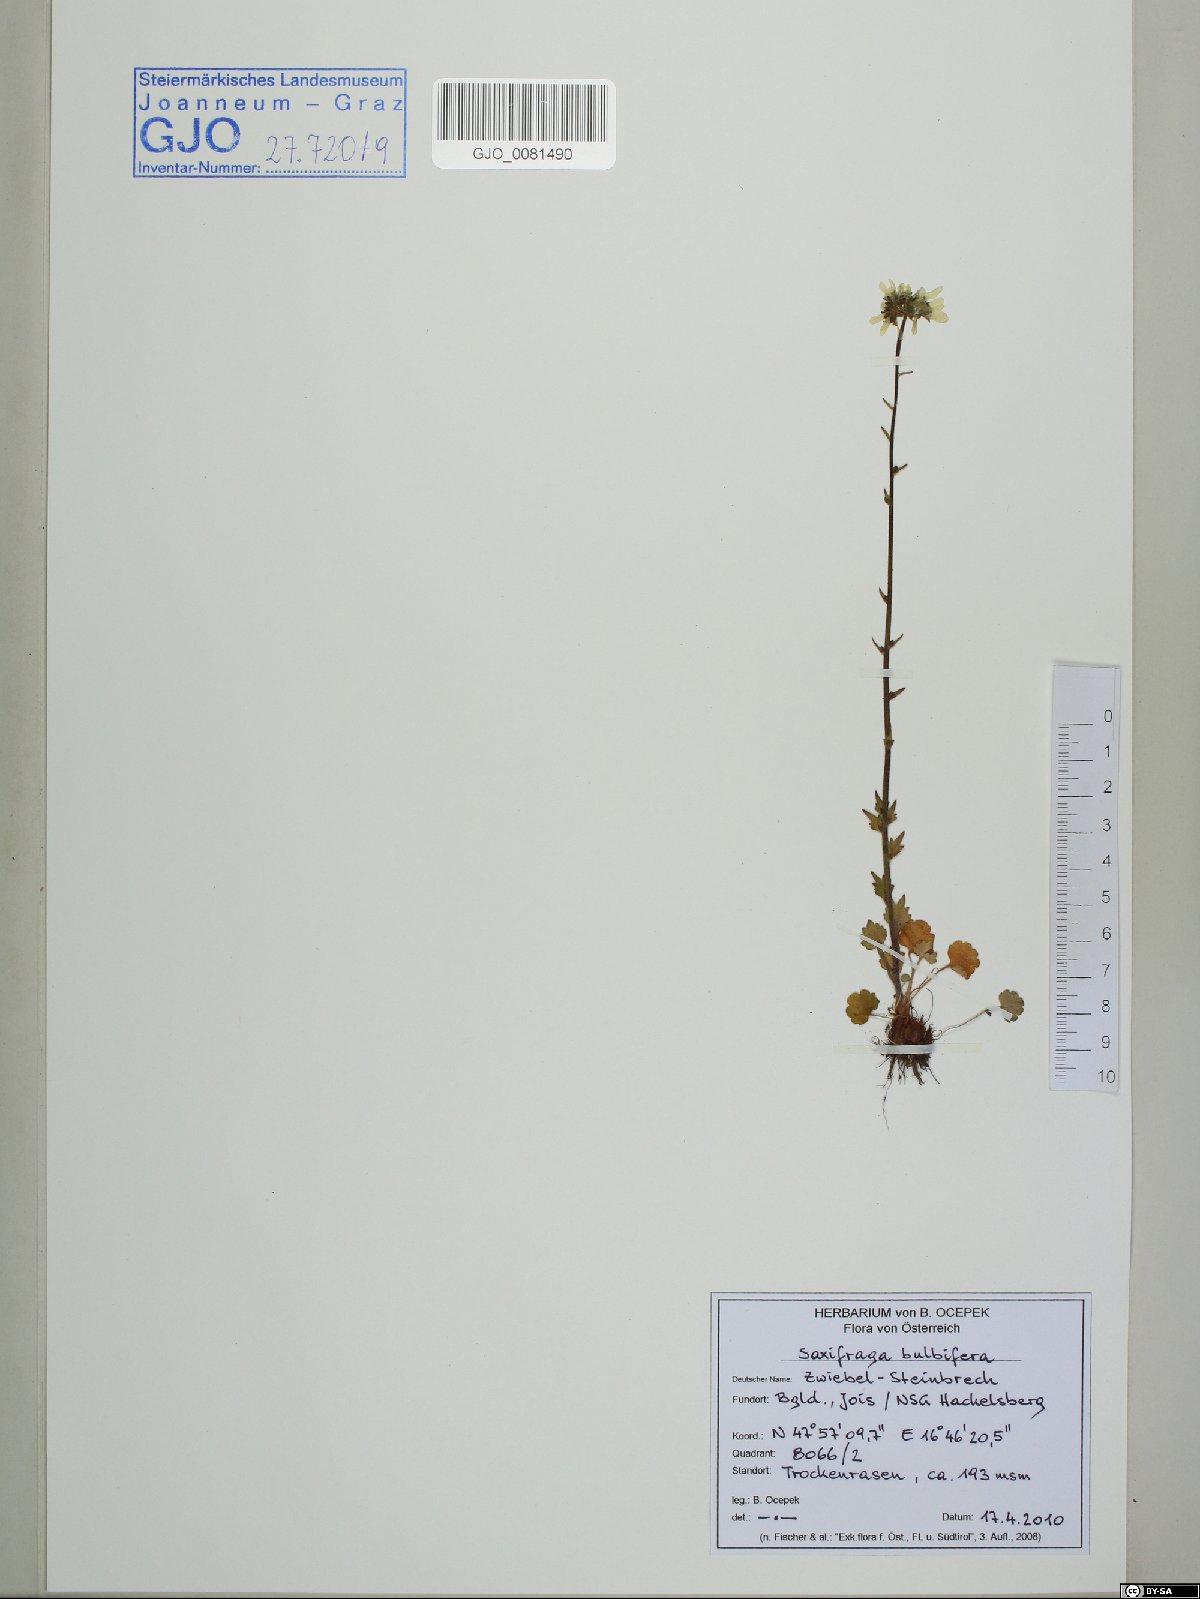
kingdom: Plantae
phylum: Tracheophyta
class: Magnoliopsida
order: Saxifragales
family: Saxifragaceae
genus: Saxifraga
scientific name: Saxifraga bulbifera
